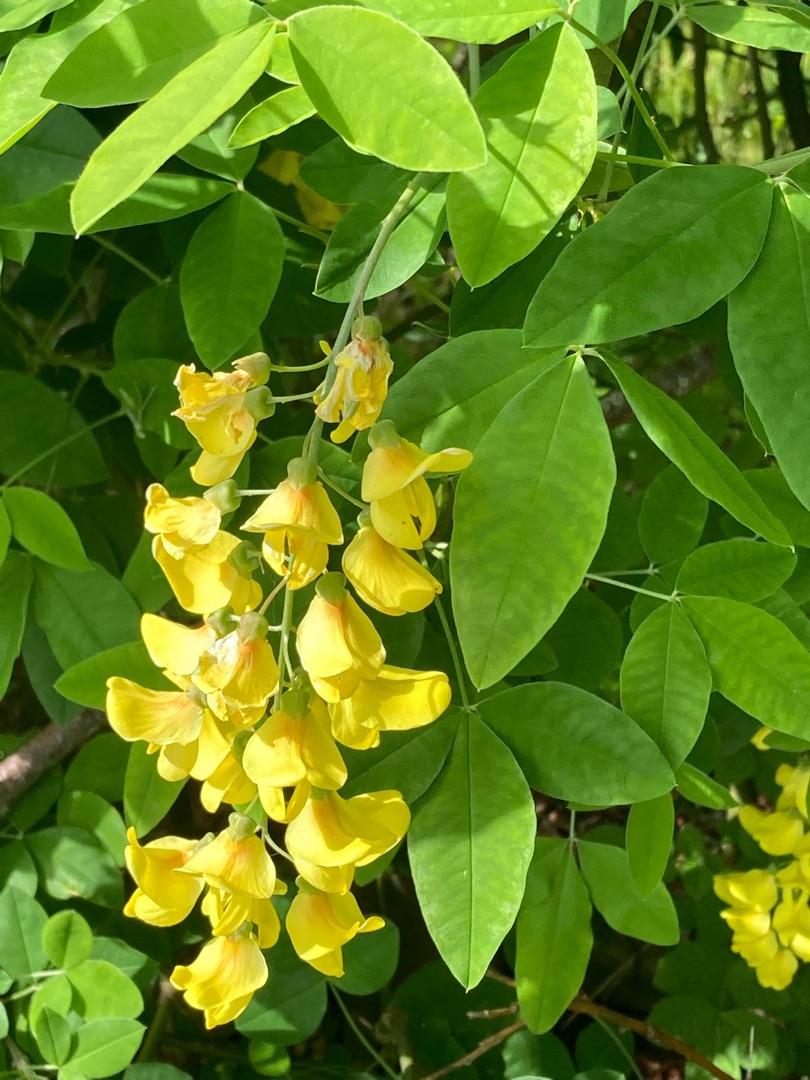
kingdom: Plantae
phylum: Tracheophyta
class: Magnoliopsida
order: Fabales
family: Fabaceae
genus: Laburnum
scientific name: Laburnum anagyroides
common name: Guldregn
